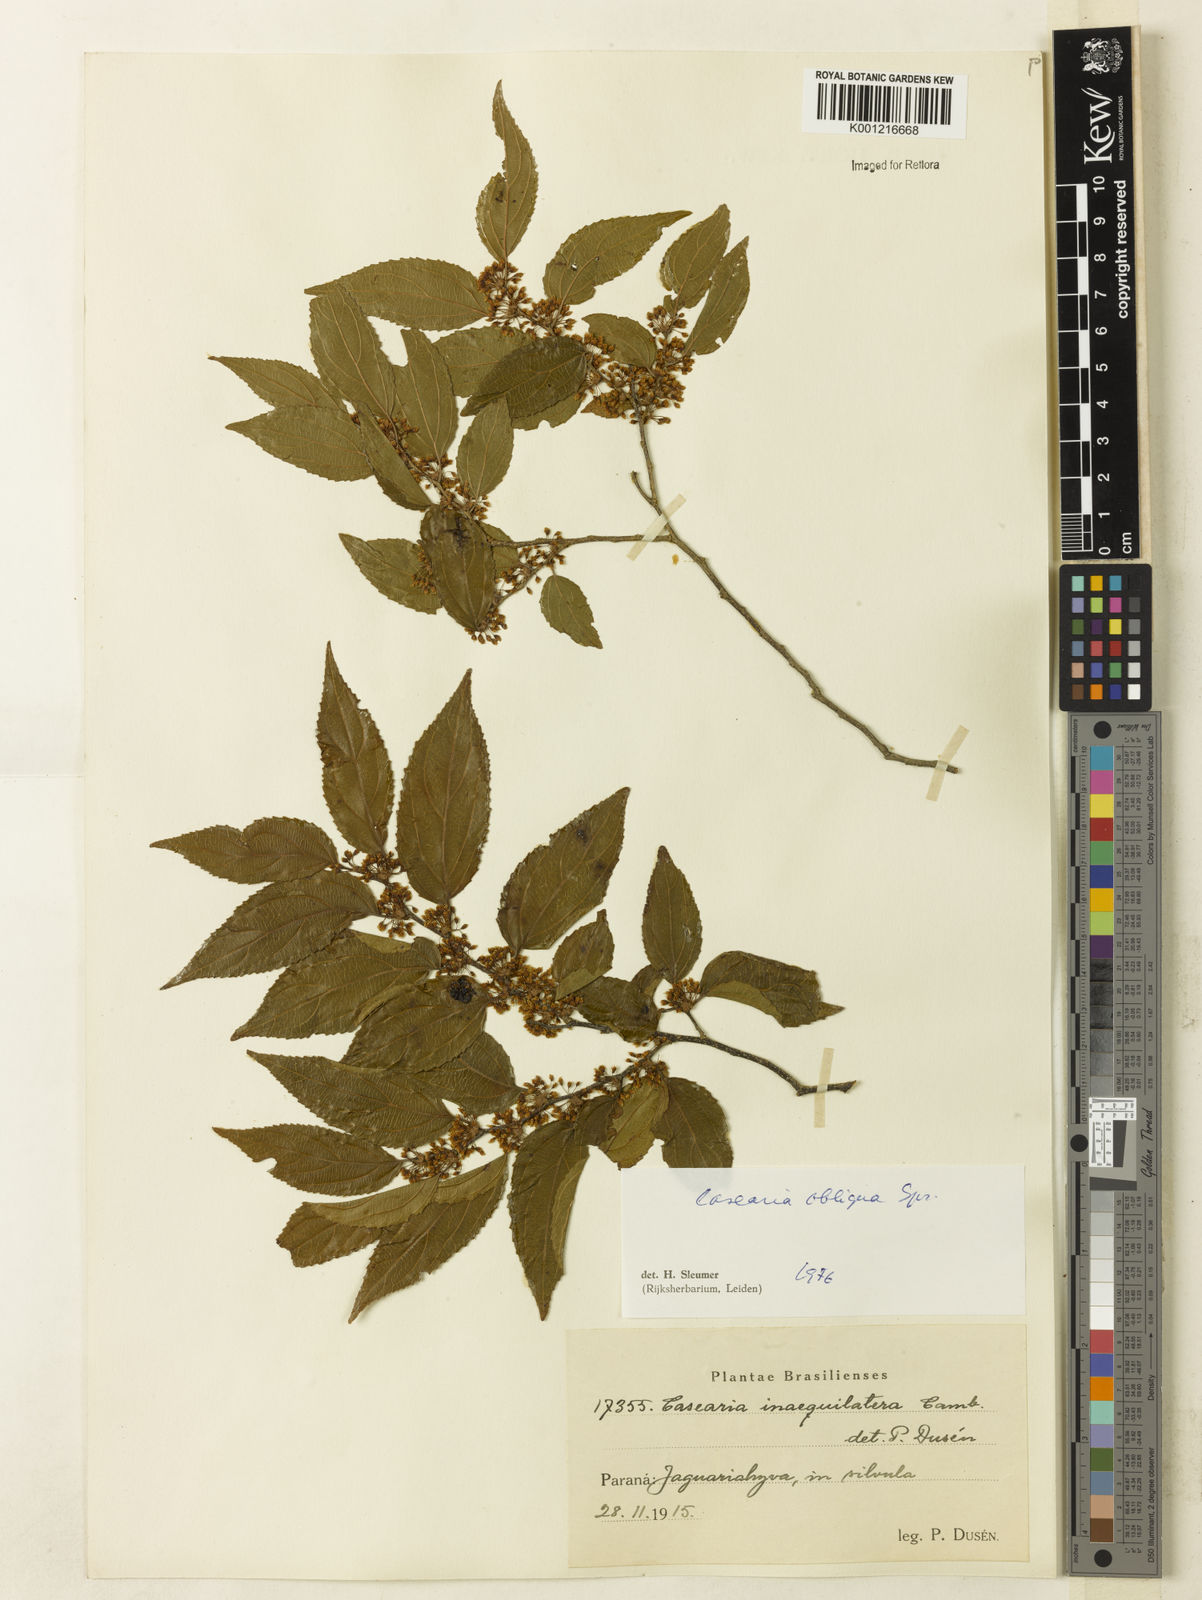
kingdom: Plantae
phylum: Tracheophyta
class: Magnoliopsida
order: Malpighiales
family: Salicaceae
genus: Casearia
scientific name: Casearia obliqua
